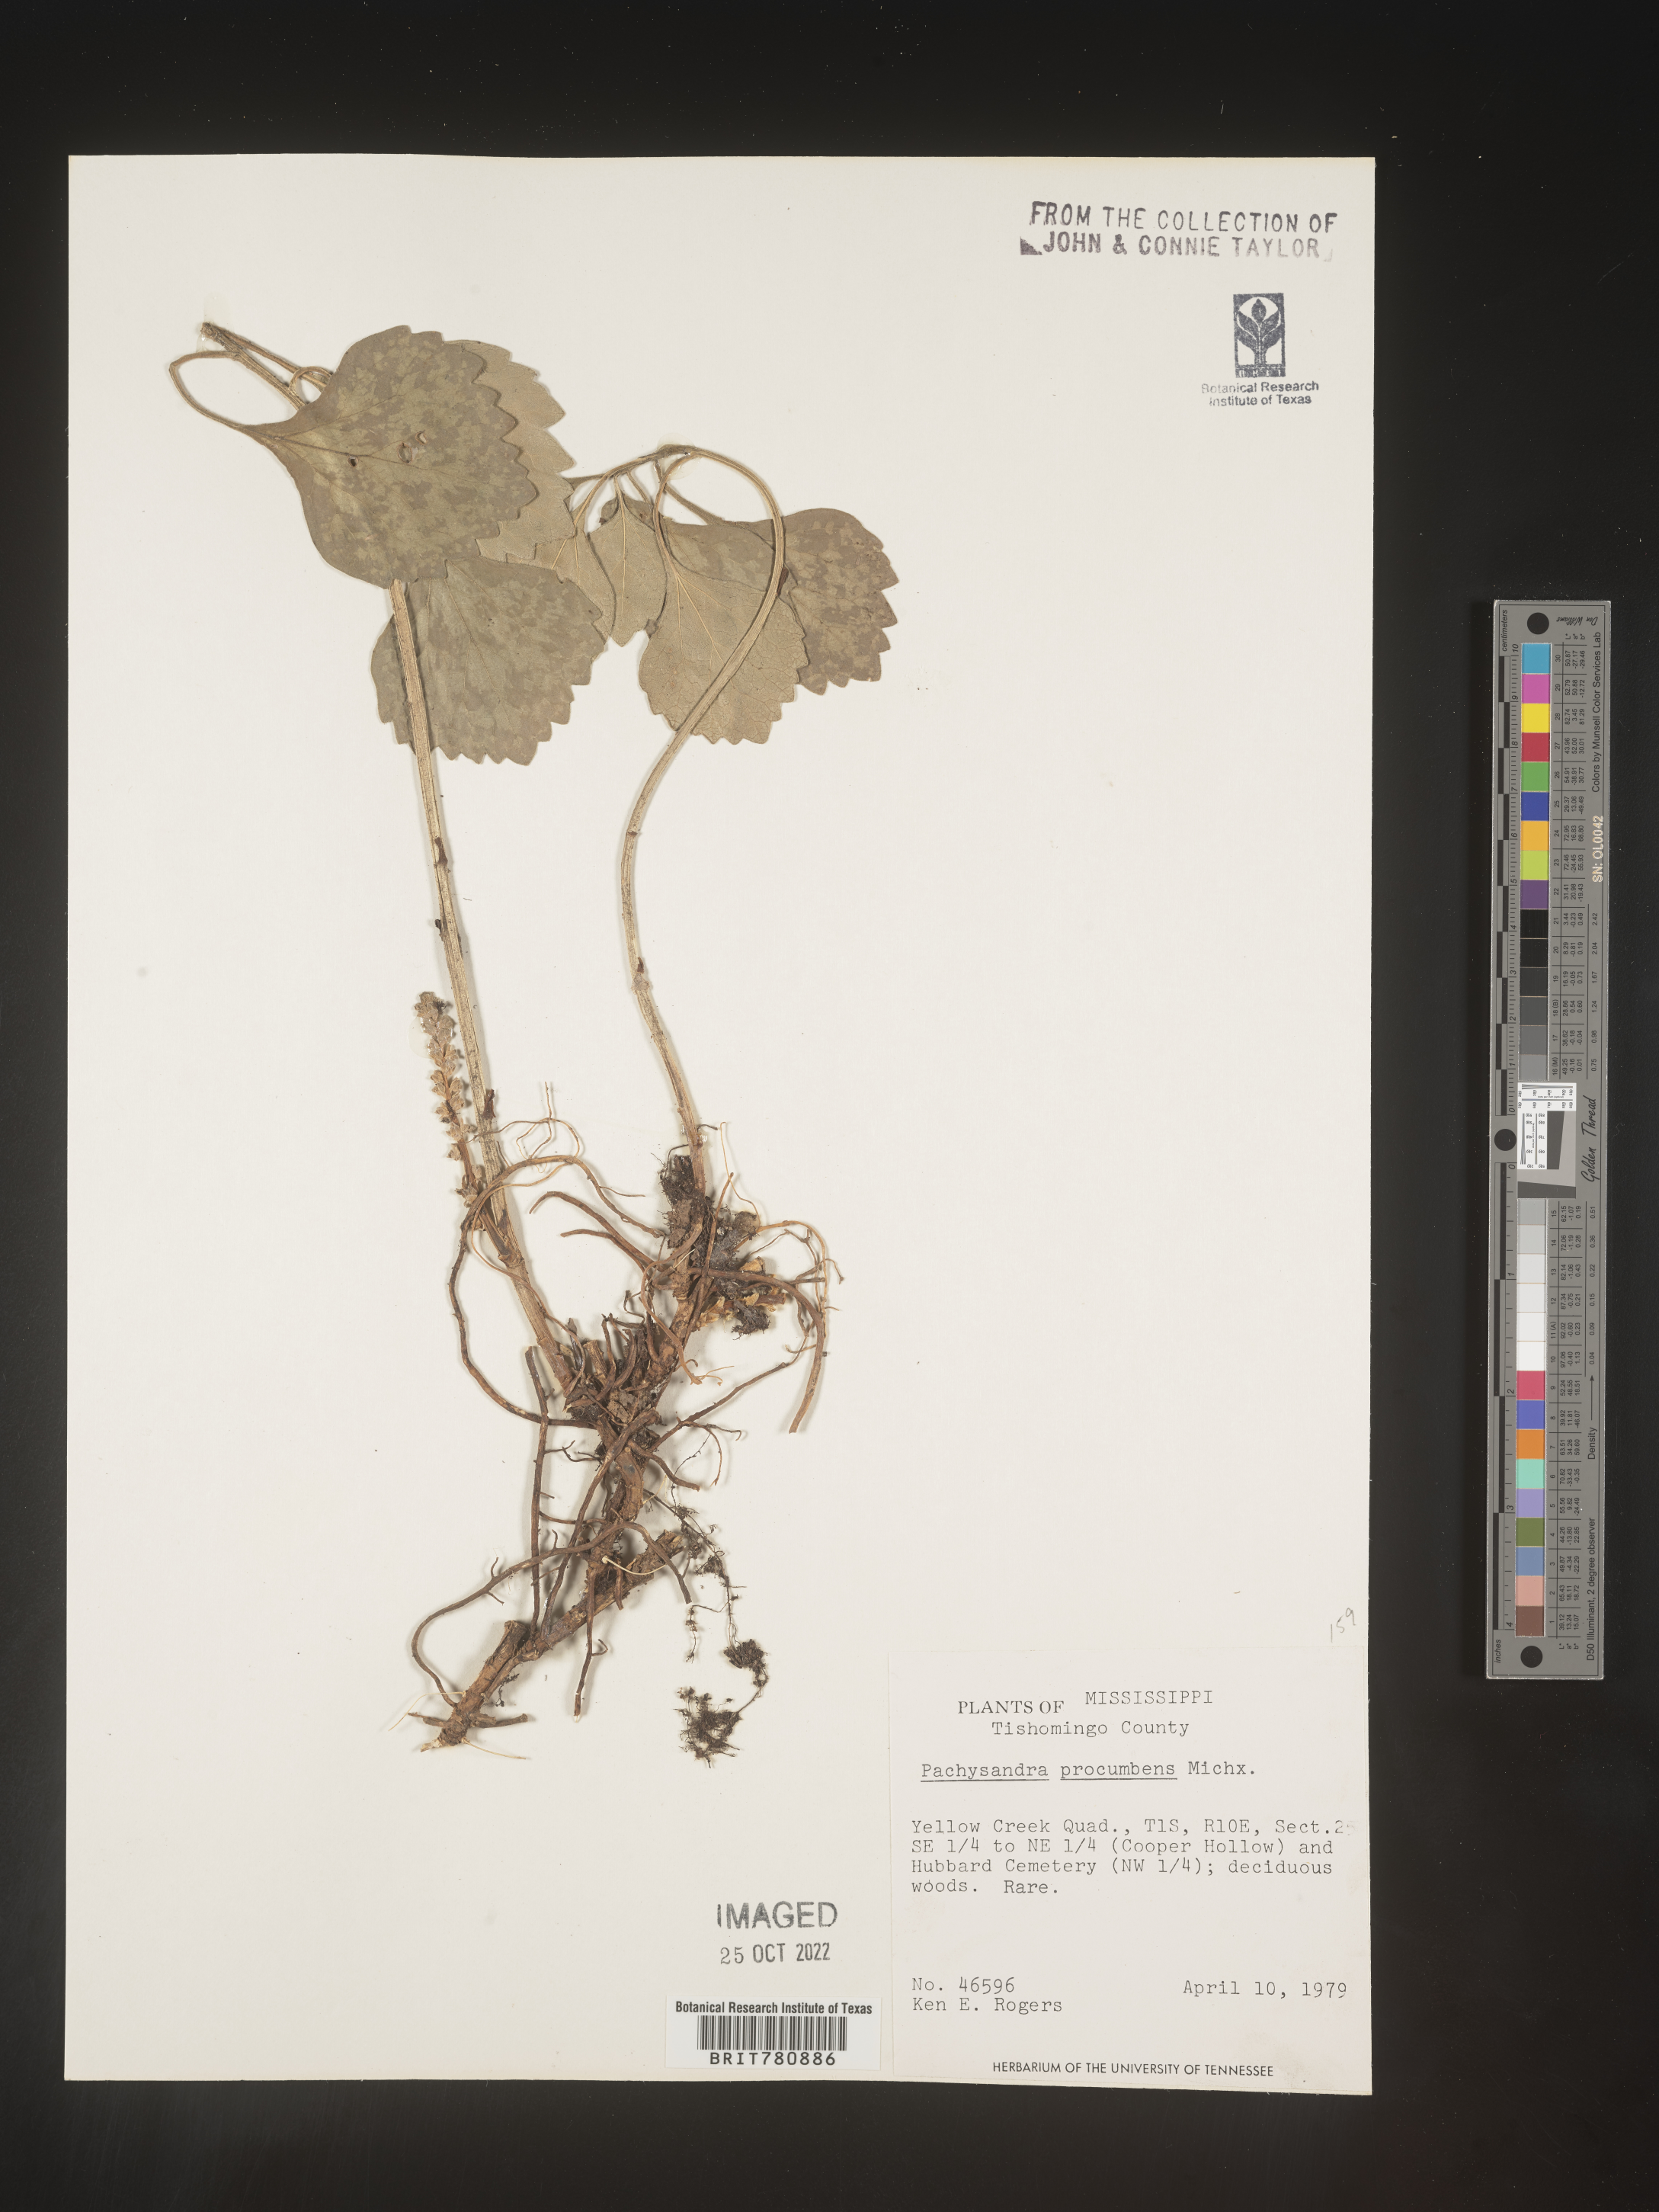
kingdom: Plantae
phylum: Tracheophyta
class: Magnoliopsida
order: Buxales
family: Buxaceae
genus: Pachysandra
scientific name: Pachysandra
